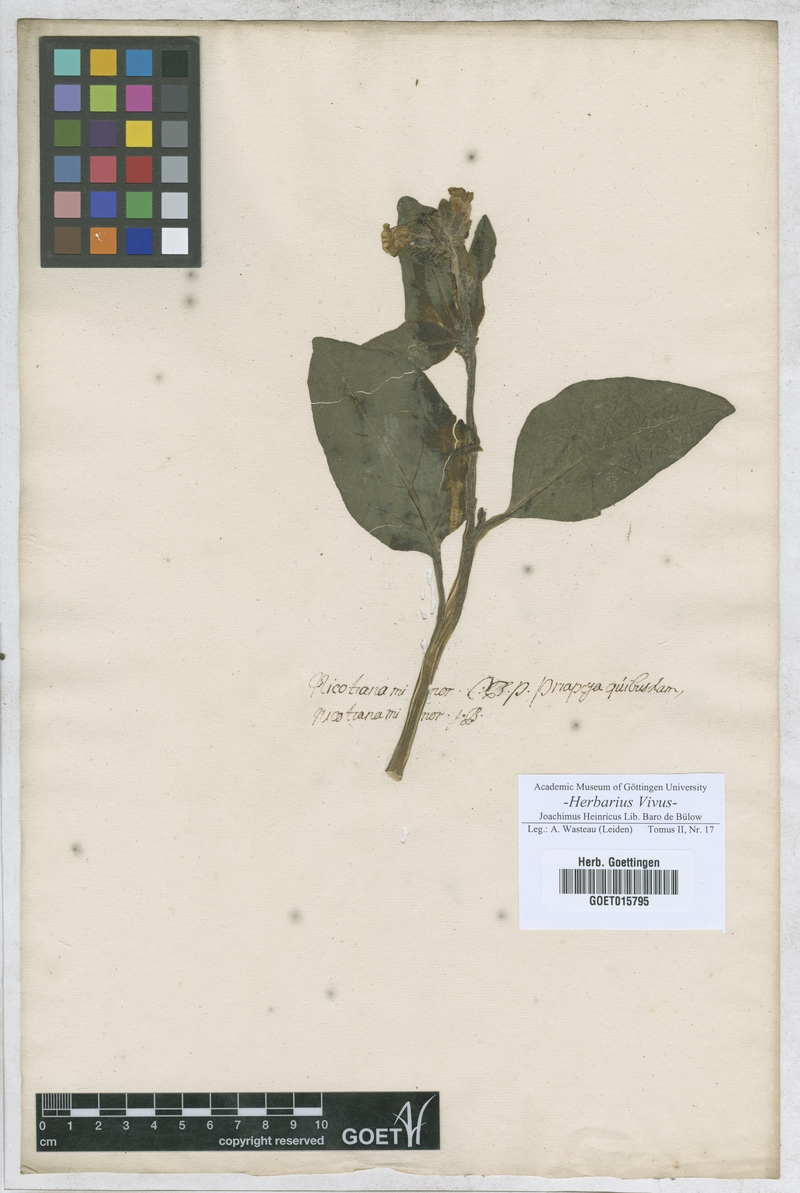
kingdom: Plantae
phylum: Tracheophyta
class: Magnoliopsida
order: Solanales
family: Solanaceae
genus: Nicotiana
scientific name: Nicotiana rustica
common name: Wild tobacco
